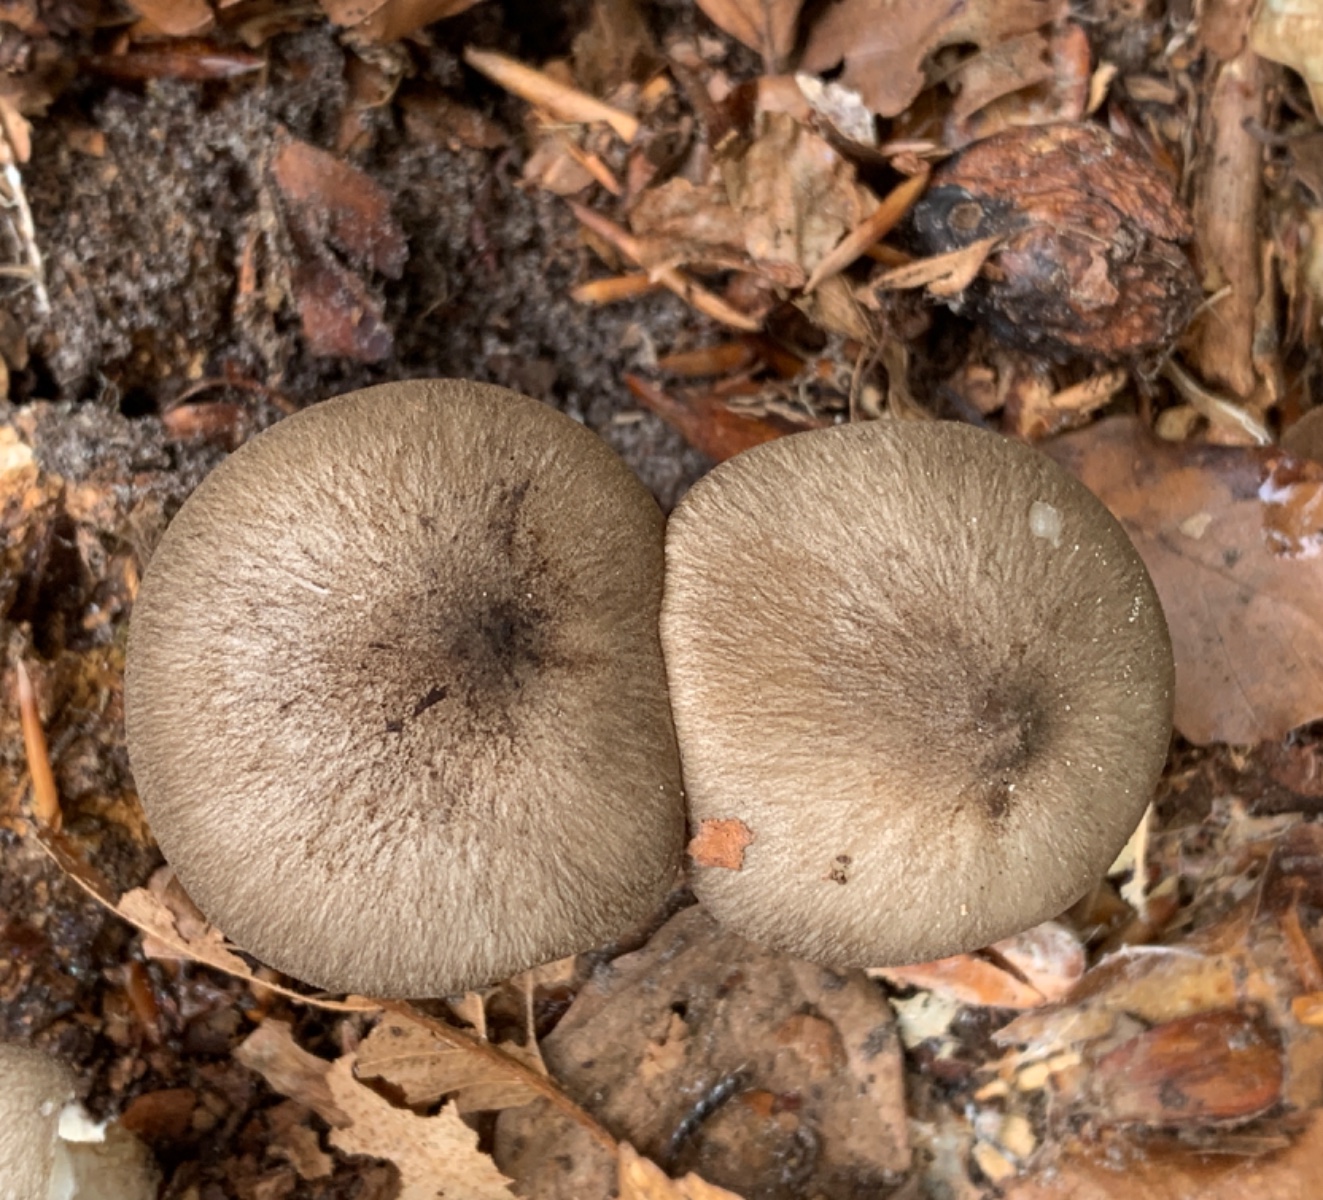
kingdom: Fungi
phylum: Basidiomycota
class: Agaricomycetes
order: Agaricales
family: Tricholomataceae
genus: Megacollybia
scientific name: Megacollybia platyphylla
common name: bredbladet væbnerhat
